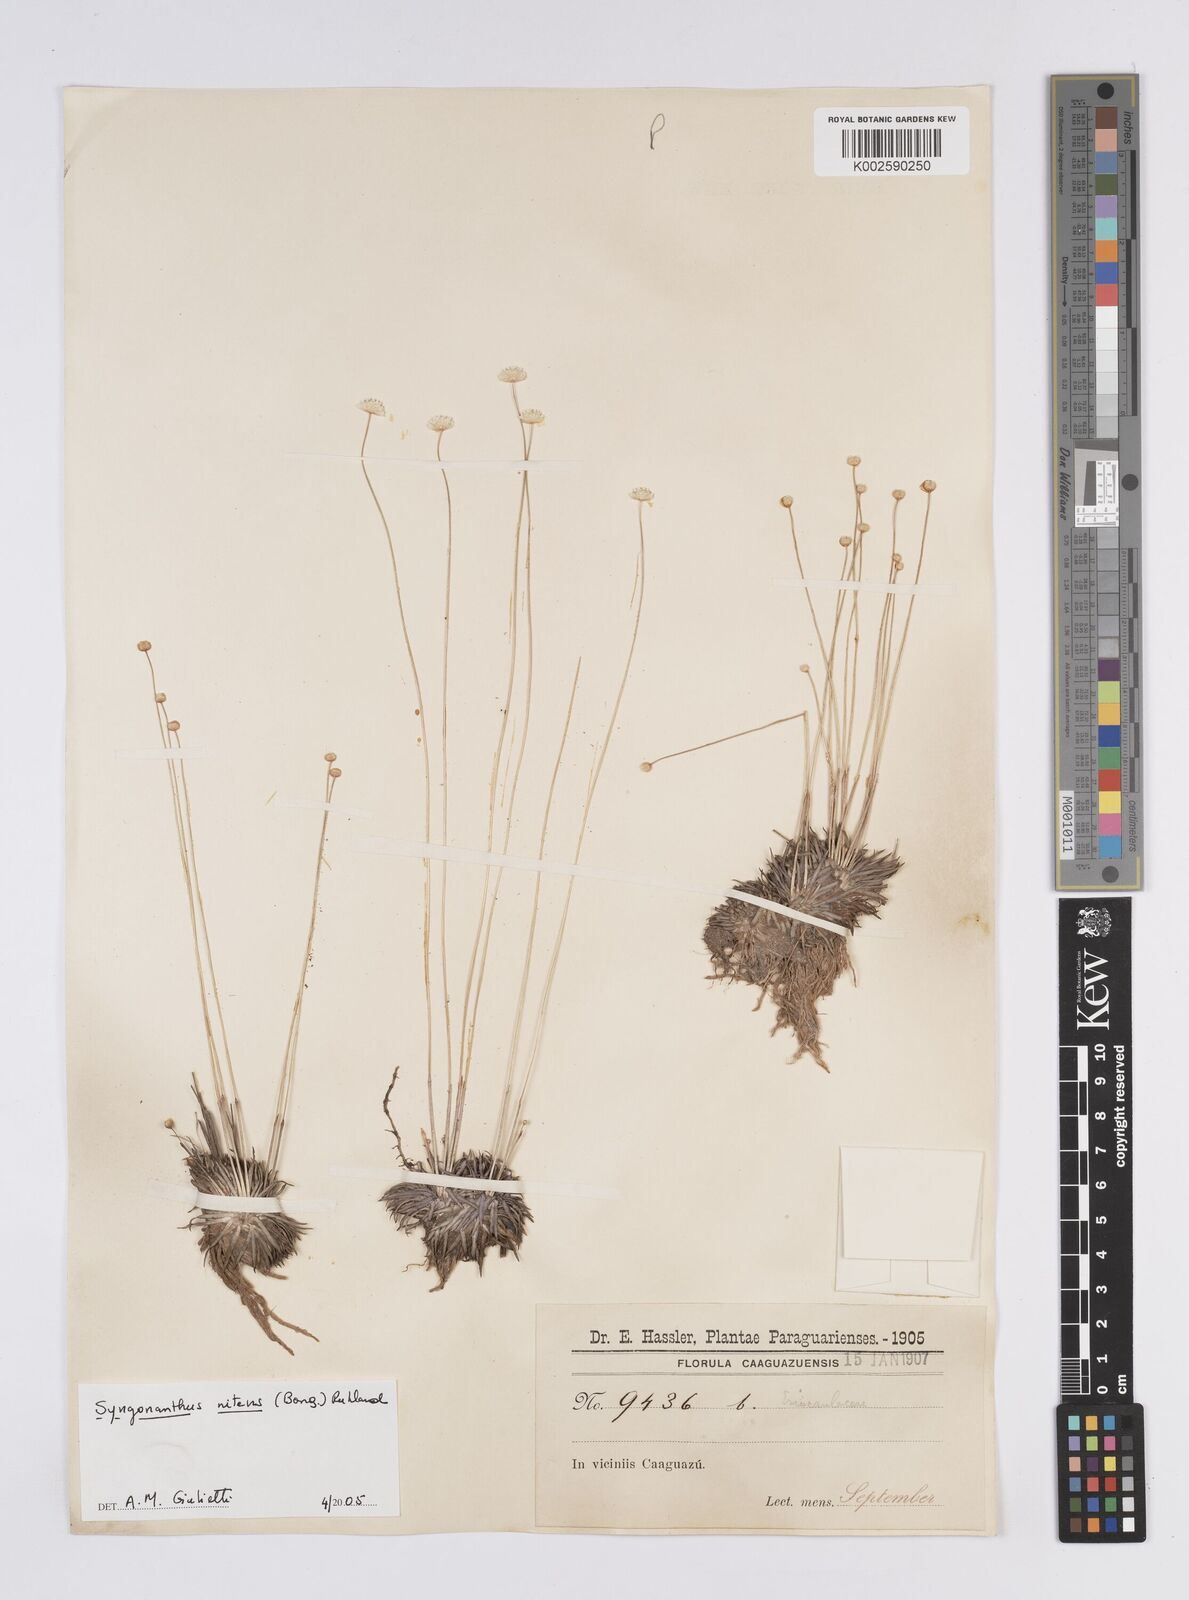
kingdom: Plantae
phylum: Tracheophyta
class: Liliopsida
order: Poales
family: Eriocaulaceae
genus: Syngonanthus
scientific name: Syngonanthus nitens
